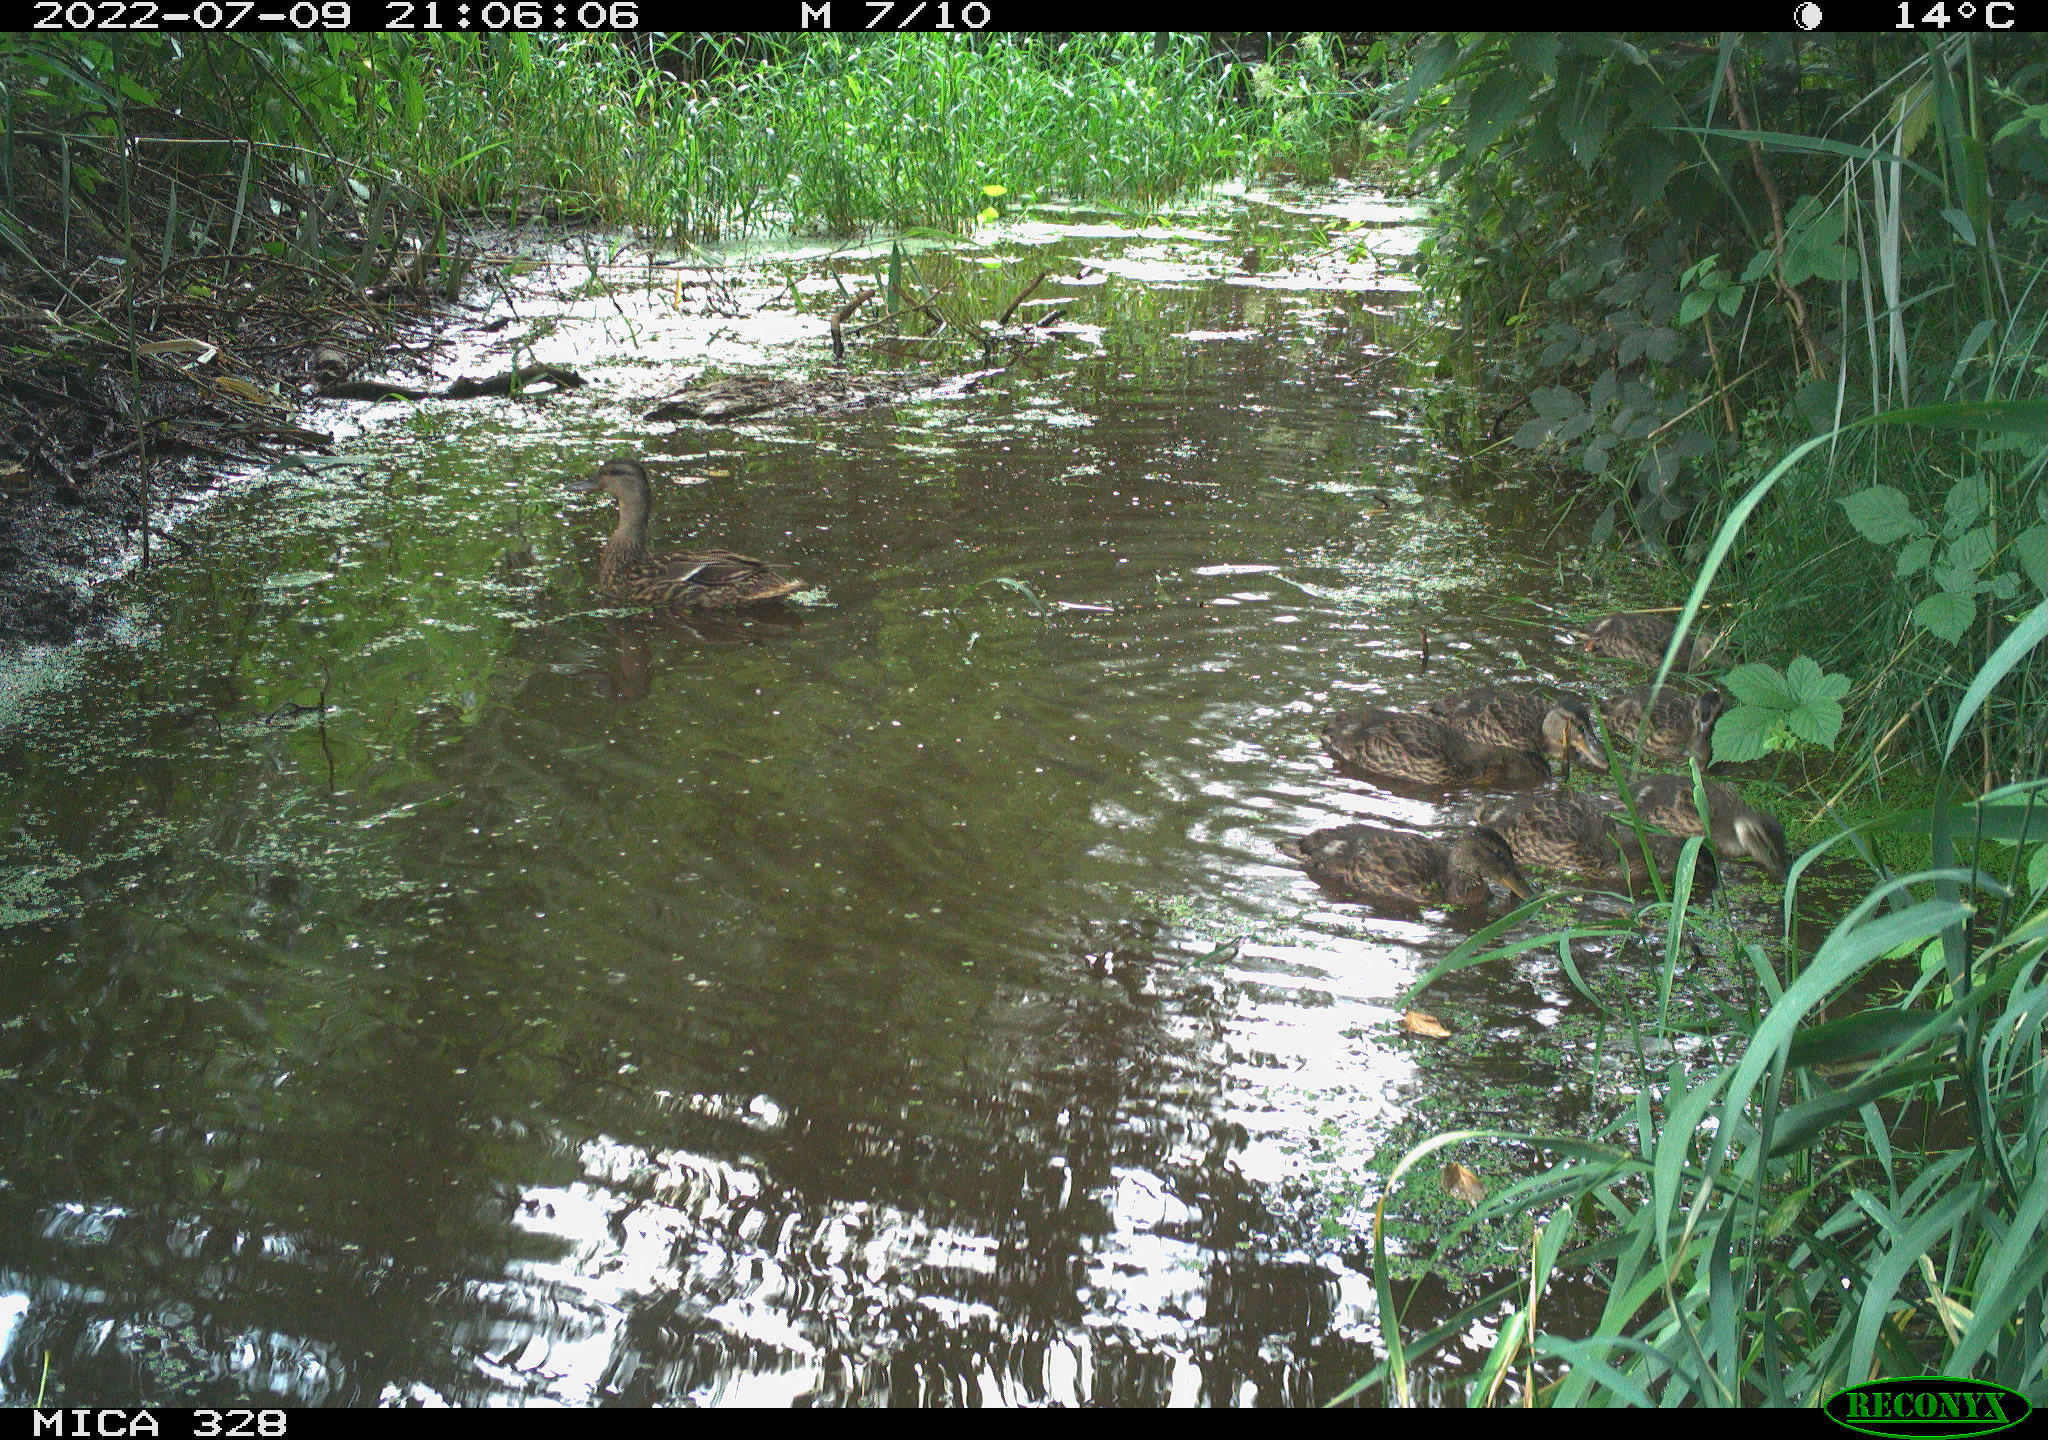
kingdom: Animalia
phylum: Chordata
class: Aves
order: Anseriformes
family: Anatidae
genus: Anas
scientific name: Anas
